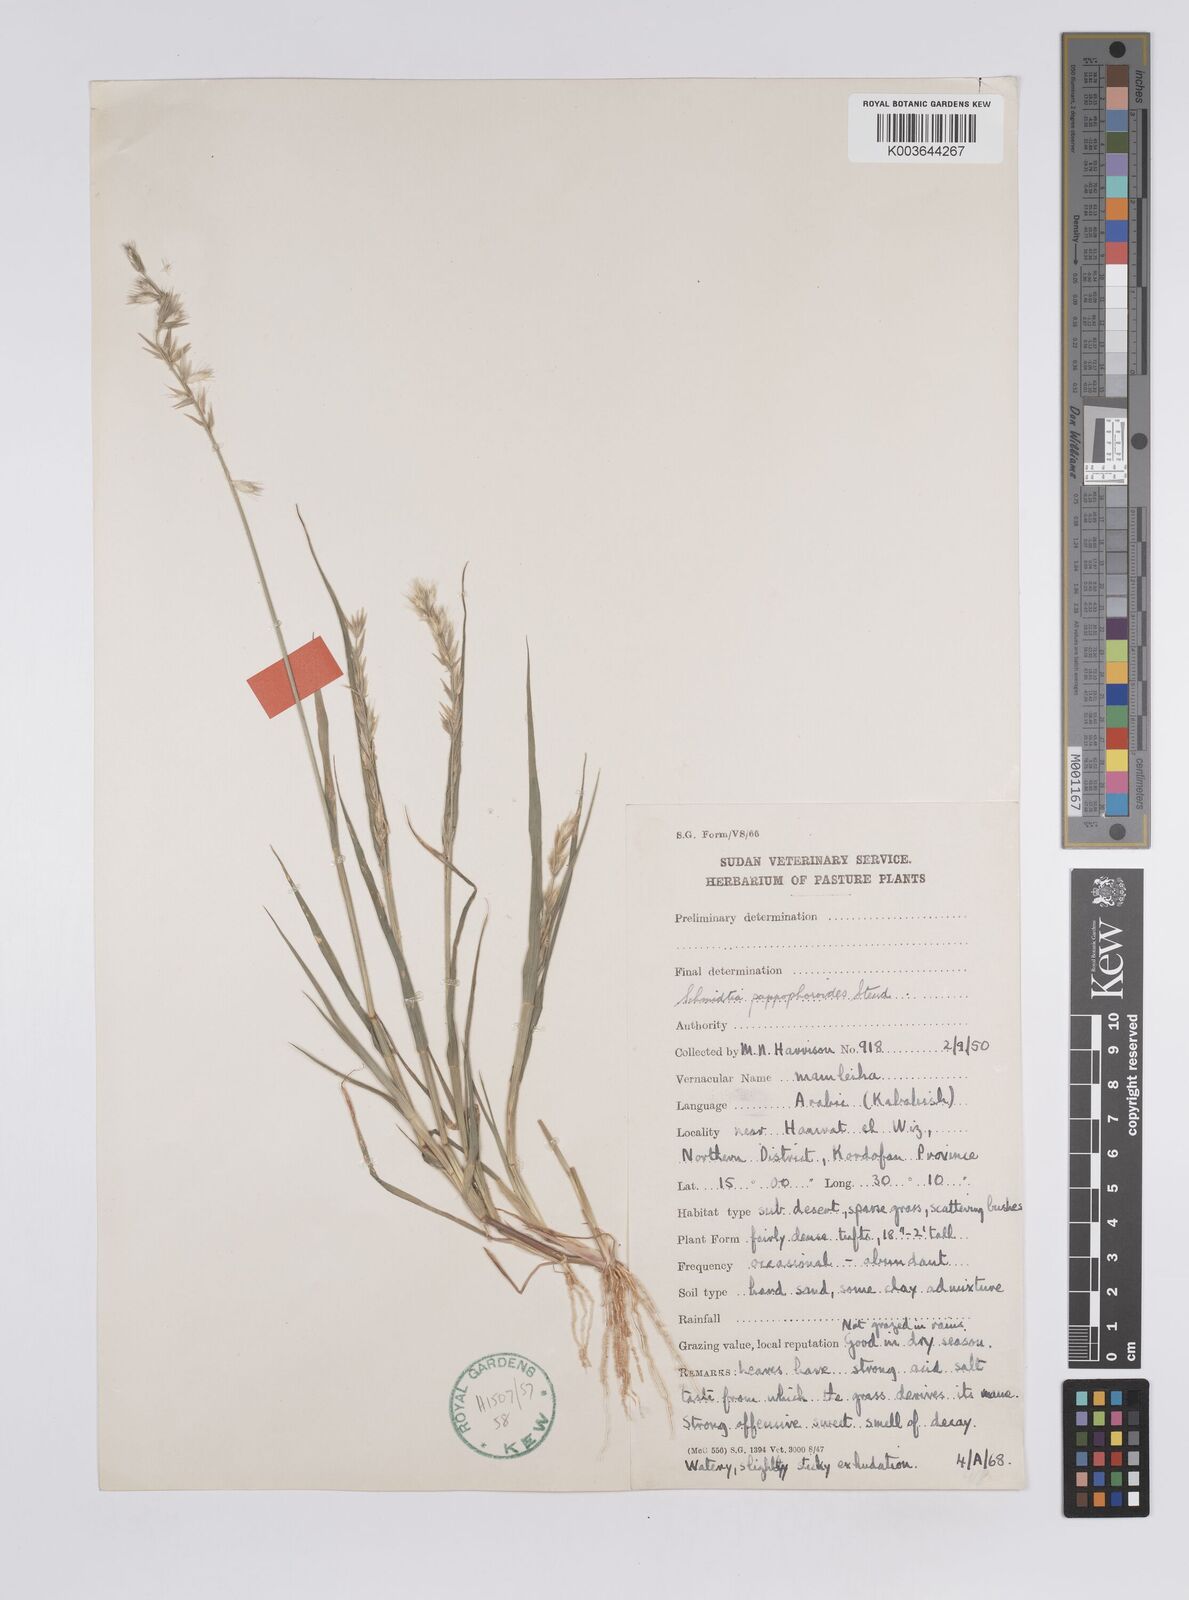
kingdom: Plantae
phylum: Tracheophyta
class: Liliopsida
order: Poales
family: Poaceae
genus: Schmidtia
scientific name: Schmidtia kalahariensis
